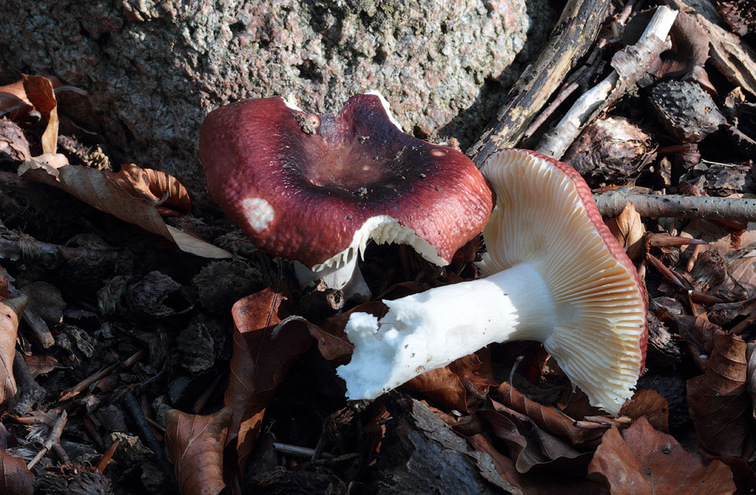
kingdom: Fungi
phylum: Basidiomycota
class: Agaricomycetes
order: Russulales
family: Russulaceae
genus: Russula
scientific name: Russula romellii
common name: romells skørhat
